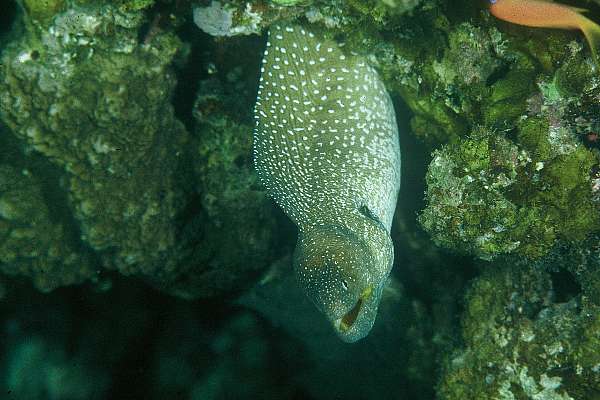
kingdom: Animalia
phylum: Chordata
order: Anguilliformes
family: Muraenidae
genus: Gymnothorax
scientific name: Gymnothorax nudivomer
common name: Yellowmouth moray
